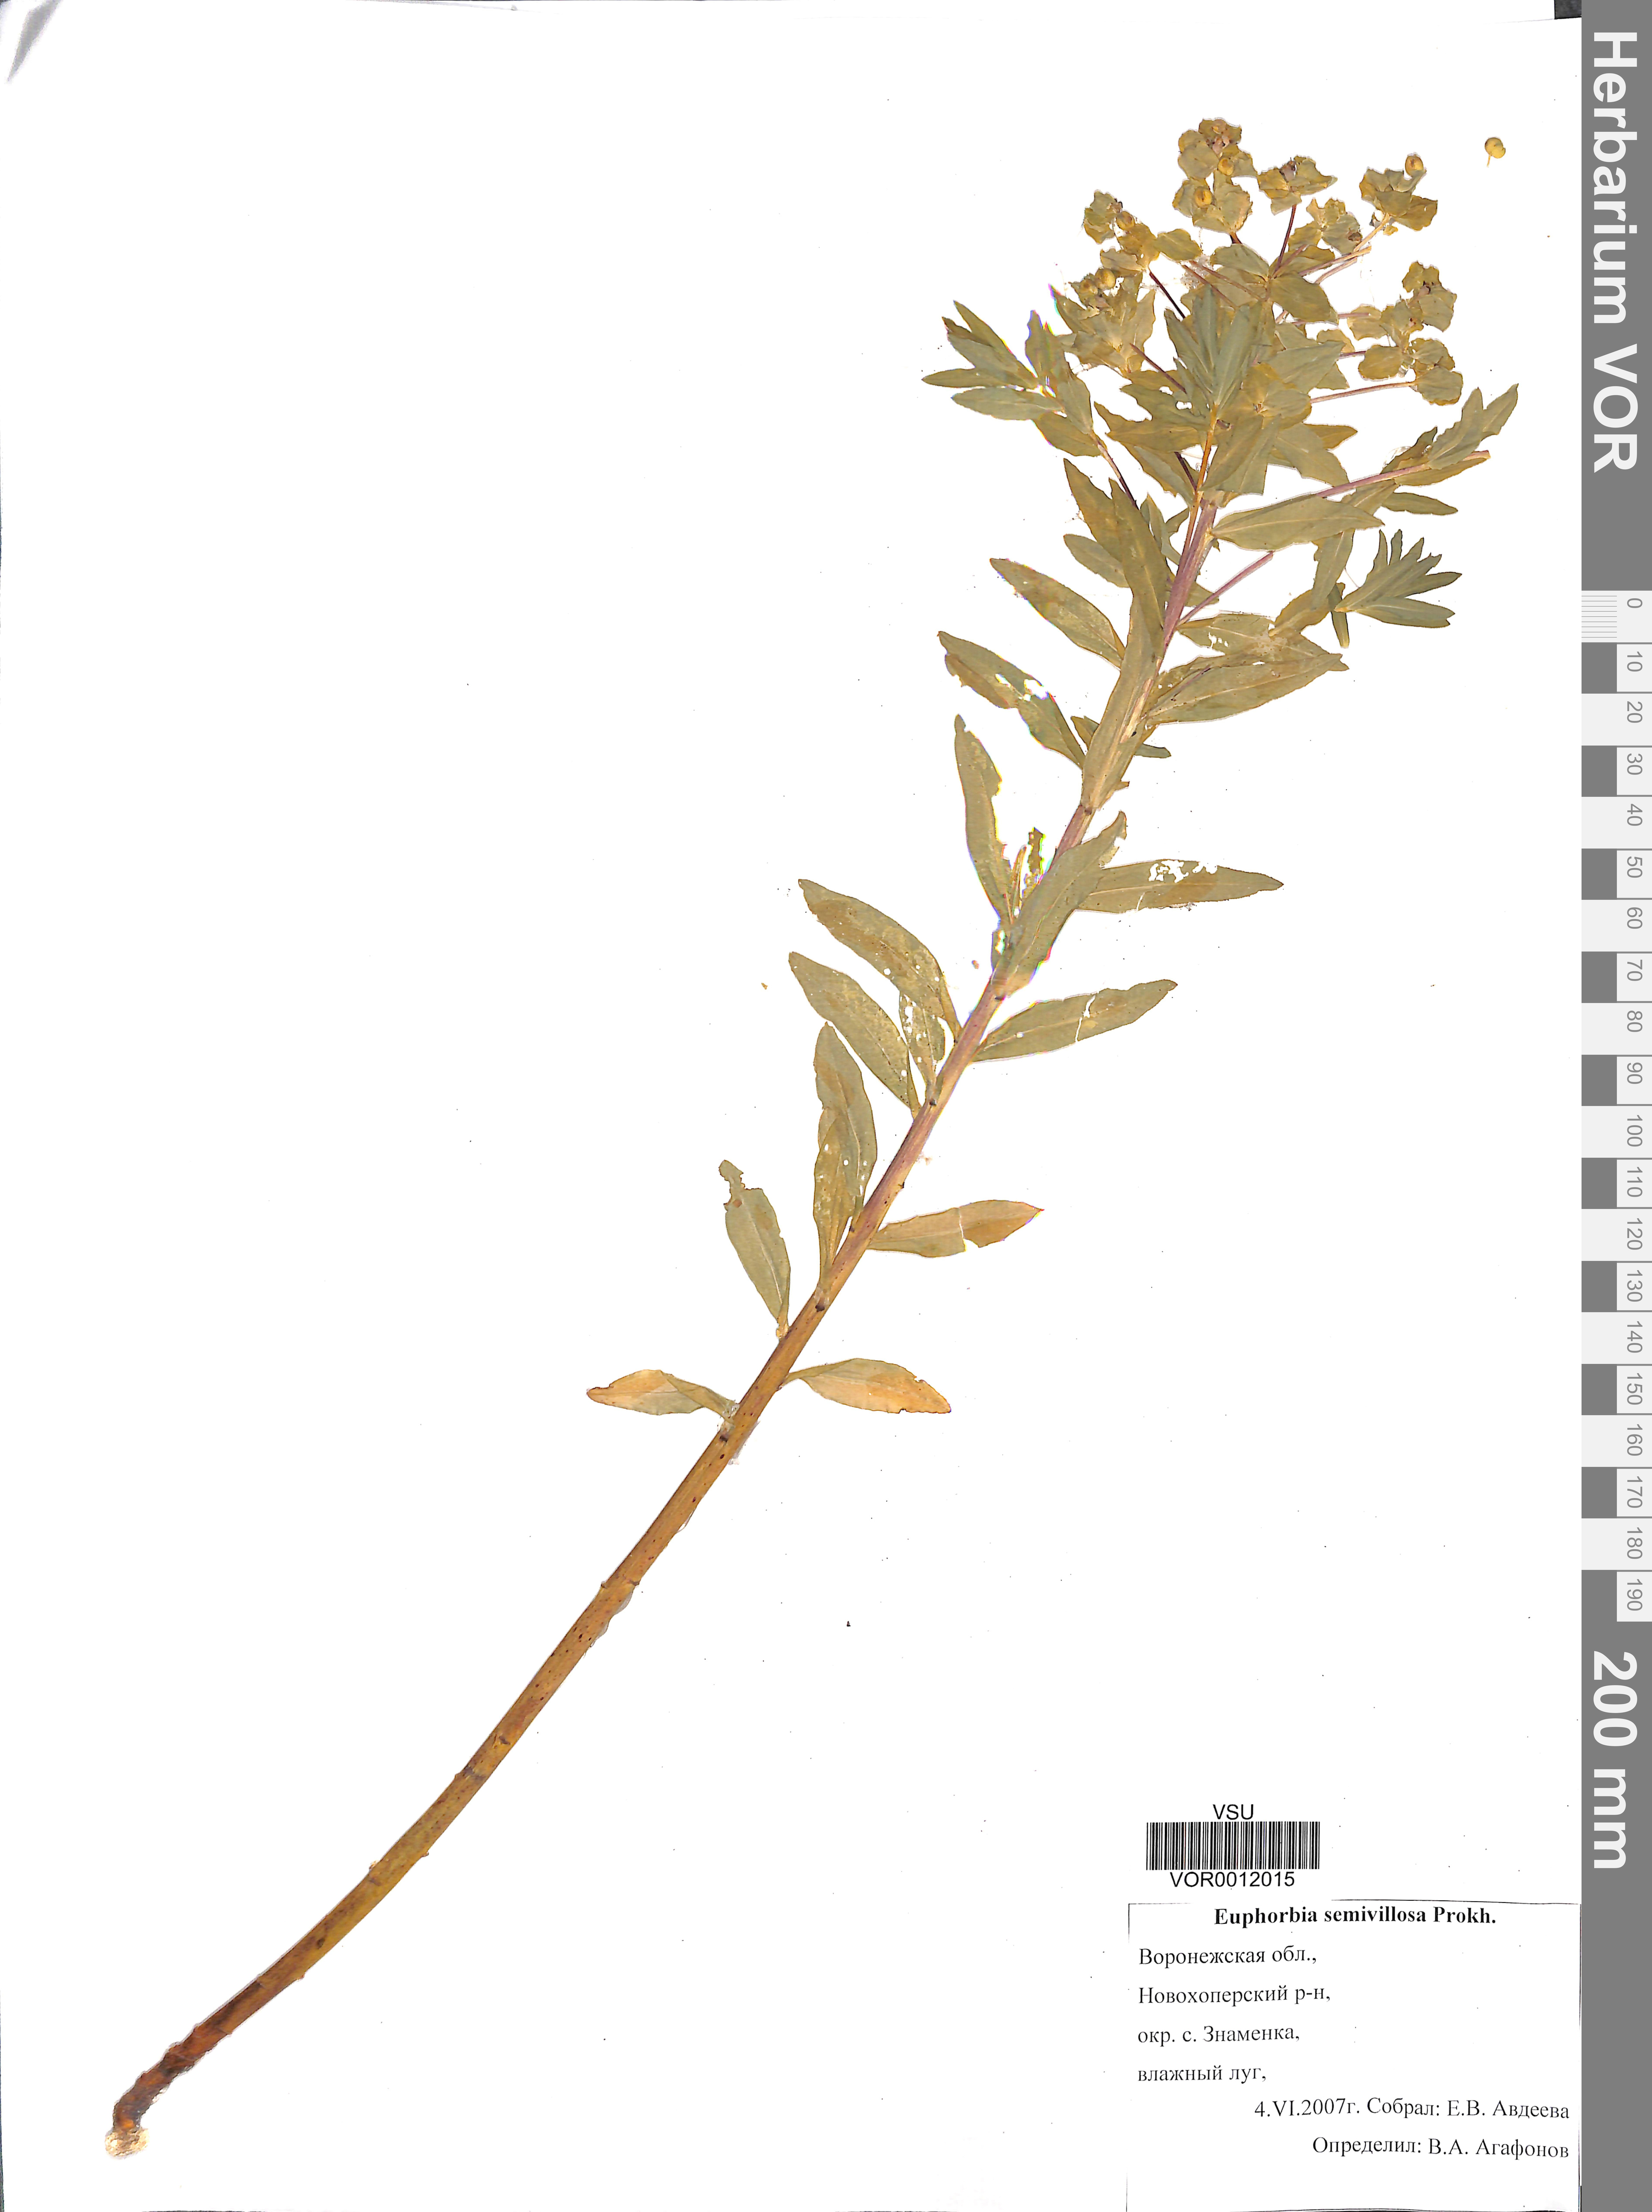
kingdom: Plantae
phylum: Tracheophyta
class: Magnoliopsida
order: Malpighiales
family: Euphorbiaceae
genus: Euphorbia
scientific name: Euphorbia semivillosa
